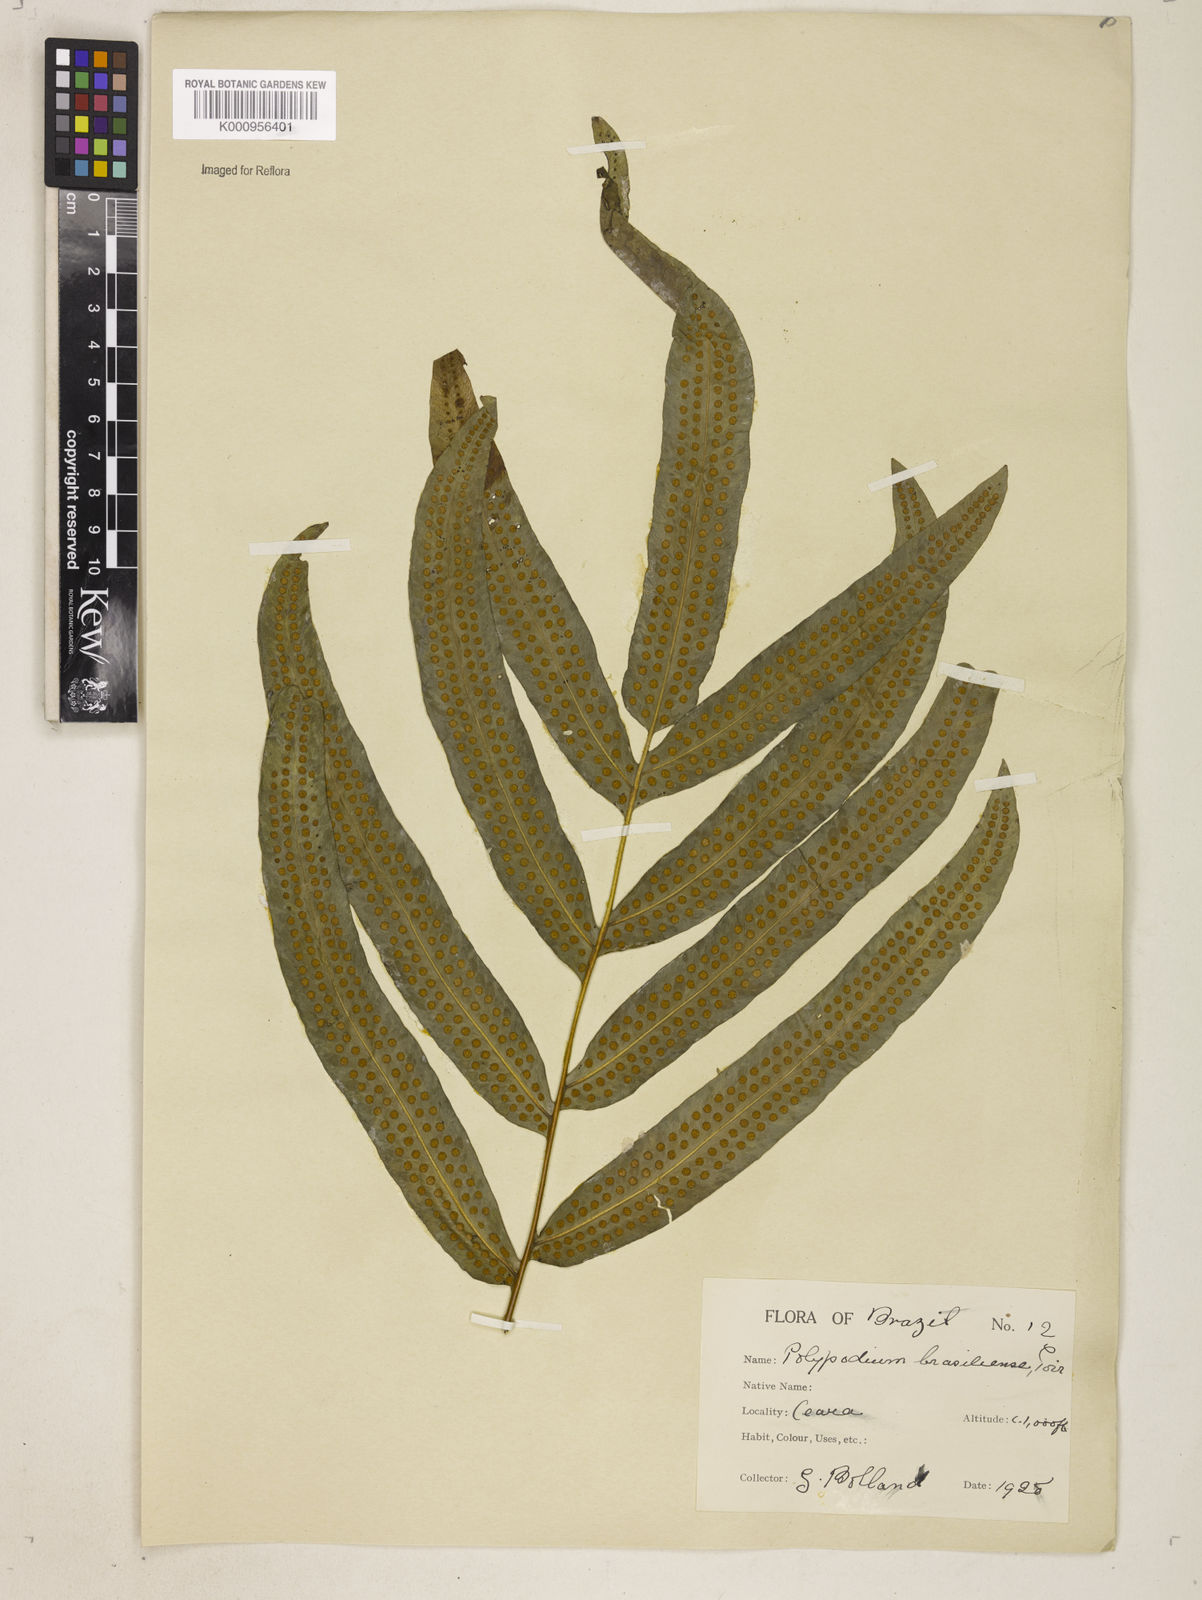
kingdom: Plantae
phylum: Tracheophyta
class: Polypodiopsida
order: Polypodiales
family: Polypodiaceae
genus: Serpocaulon
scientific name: Serpocaulon triseriale
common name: Angle-vein fern
